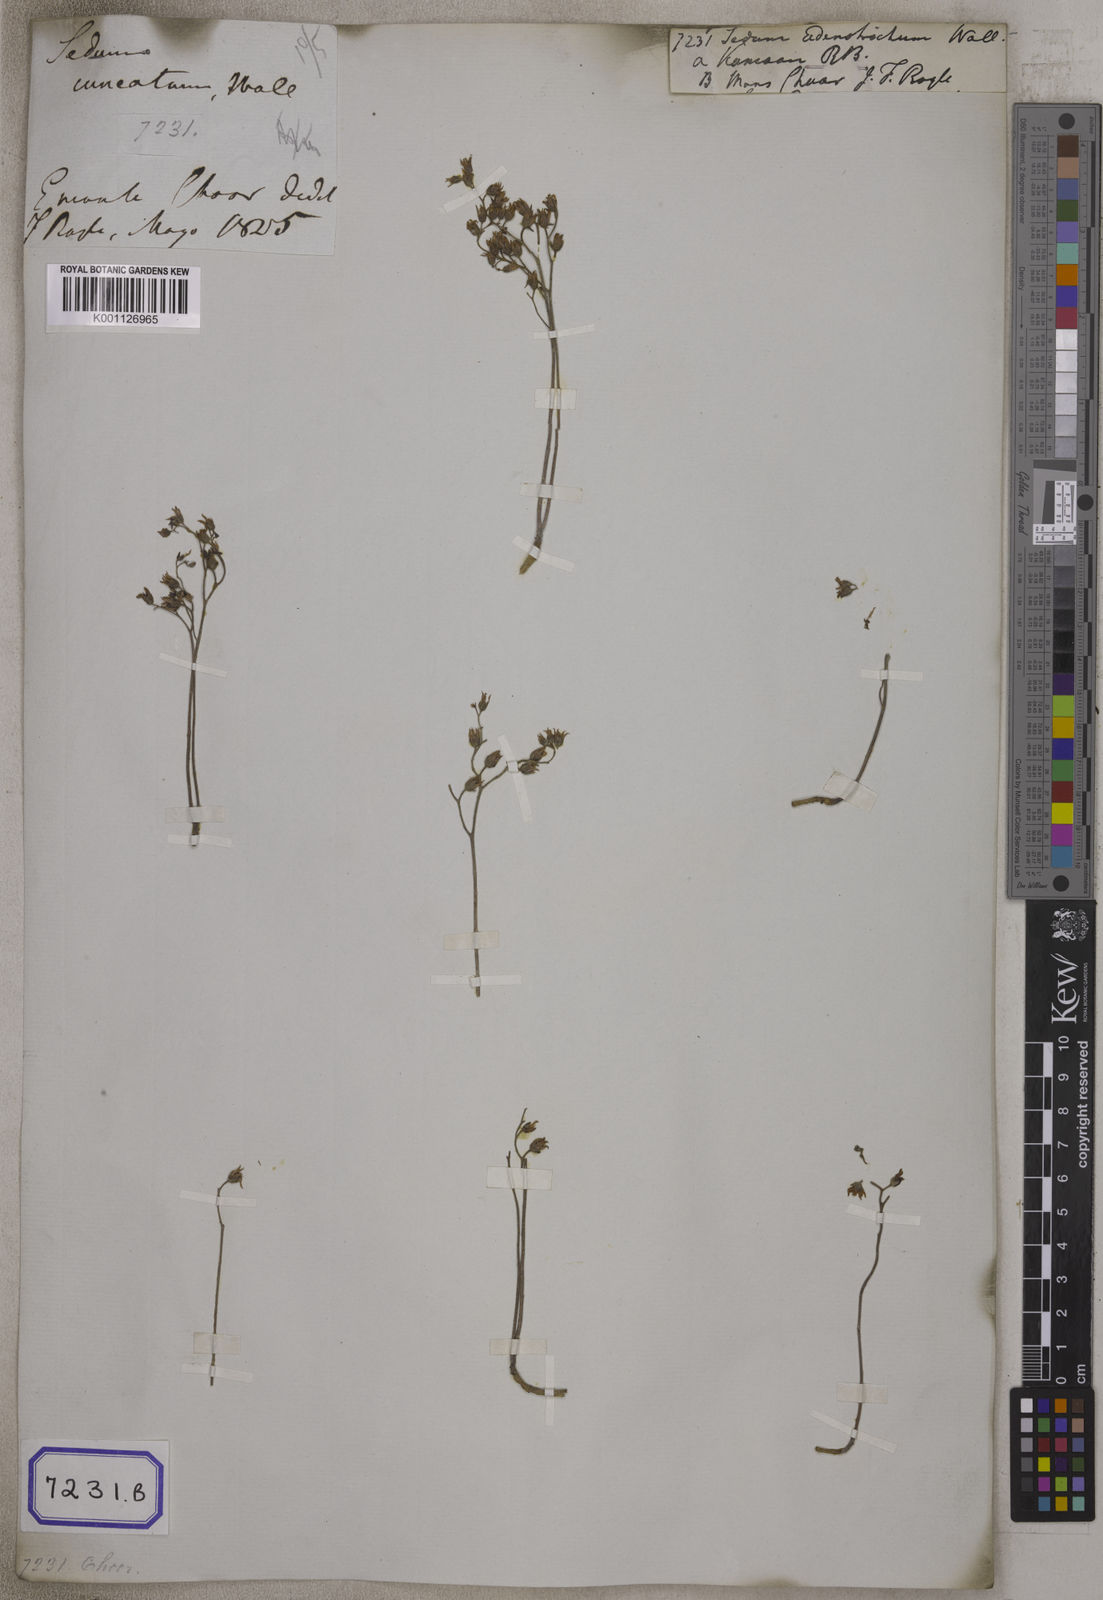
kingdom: Plantae
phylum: Tracheophyta
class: Magnoliopsida
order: Saxifragales
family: Crassulaceae
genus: Sedum
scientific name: Sedum
